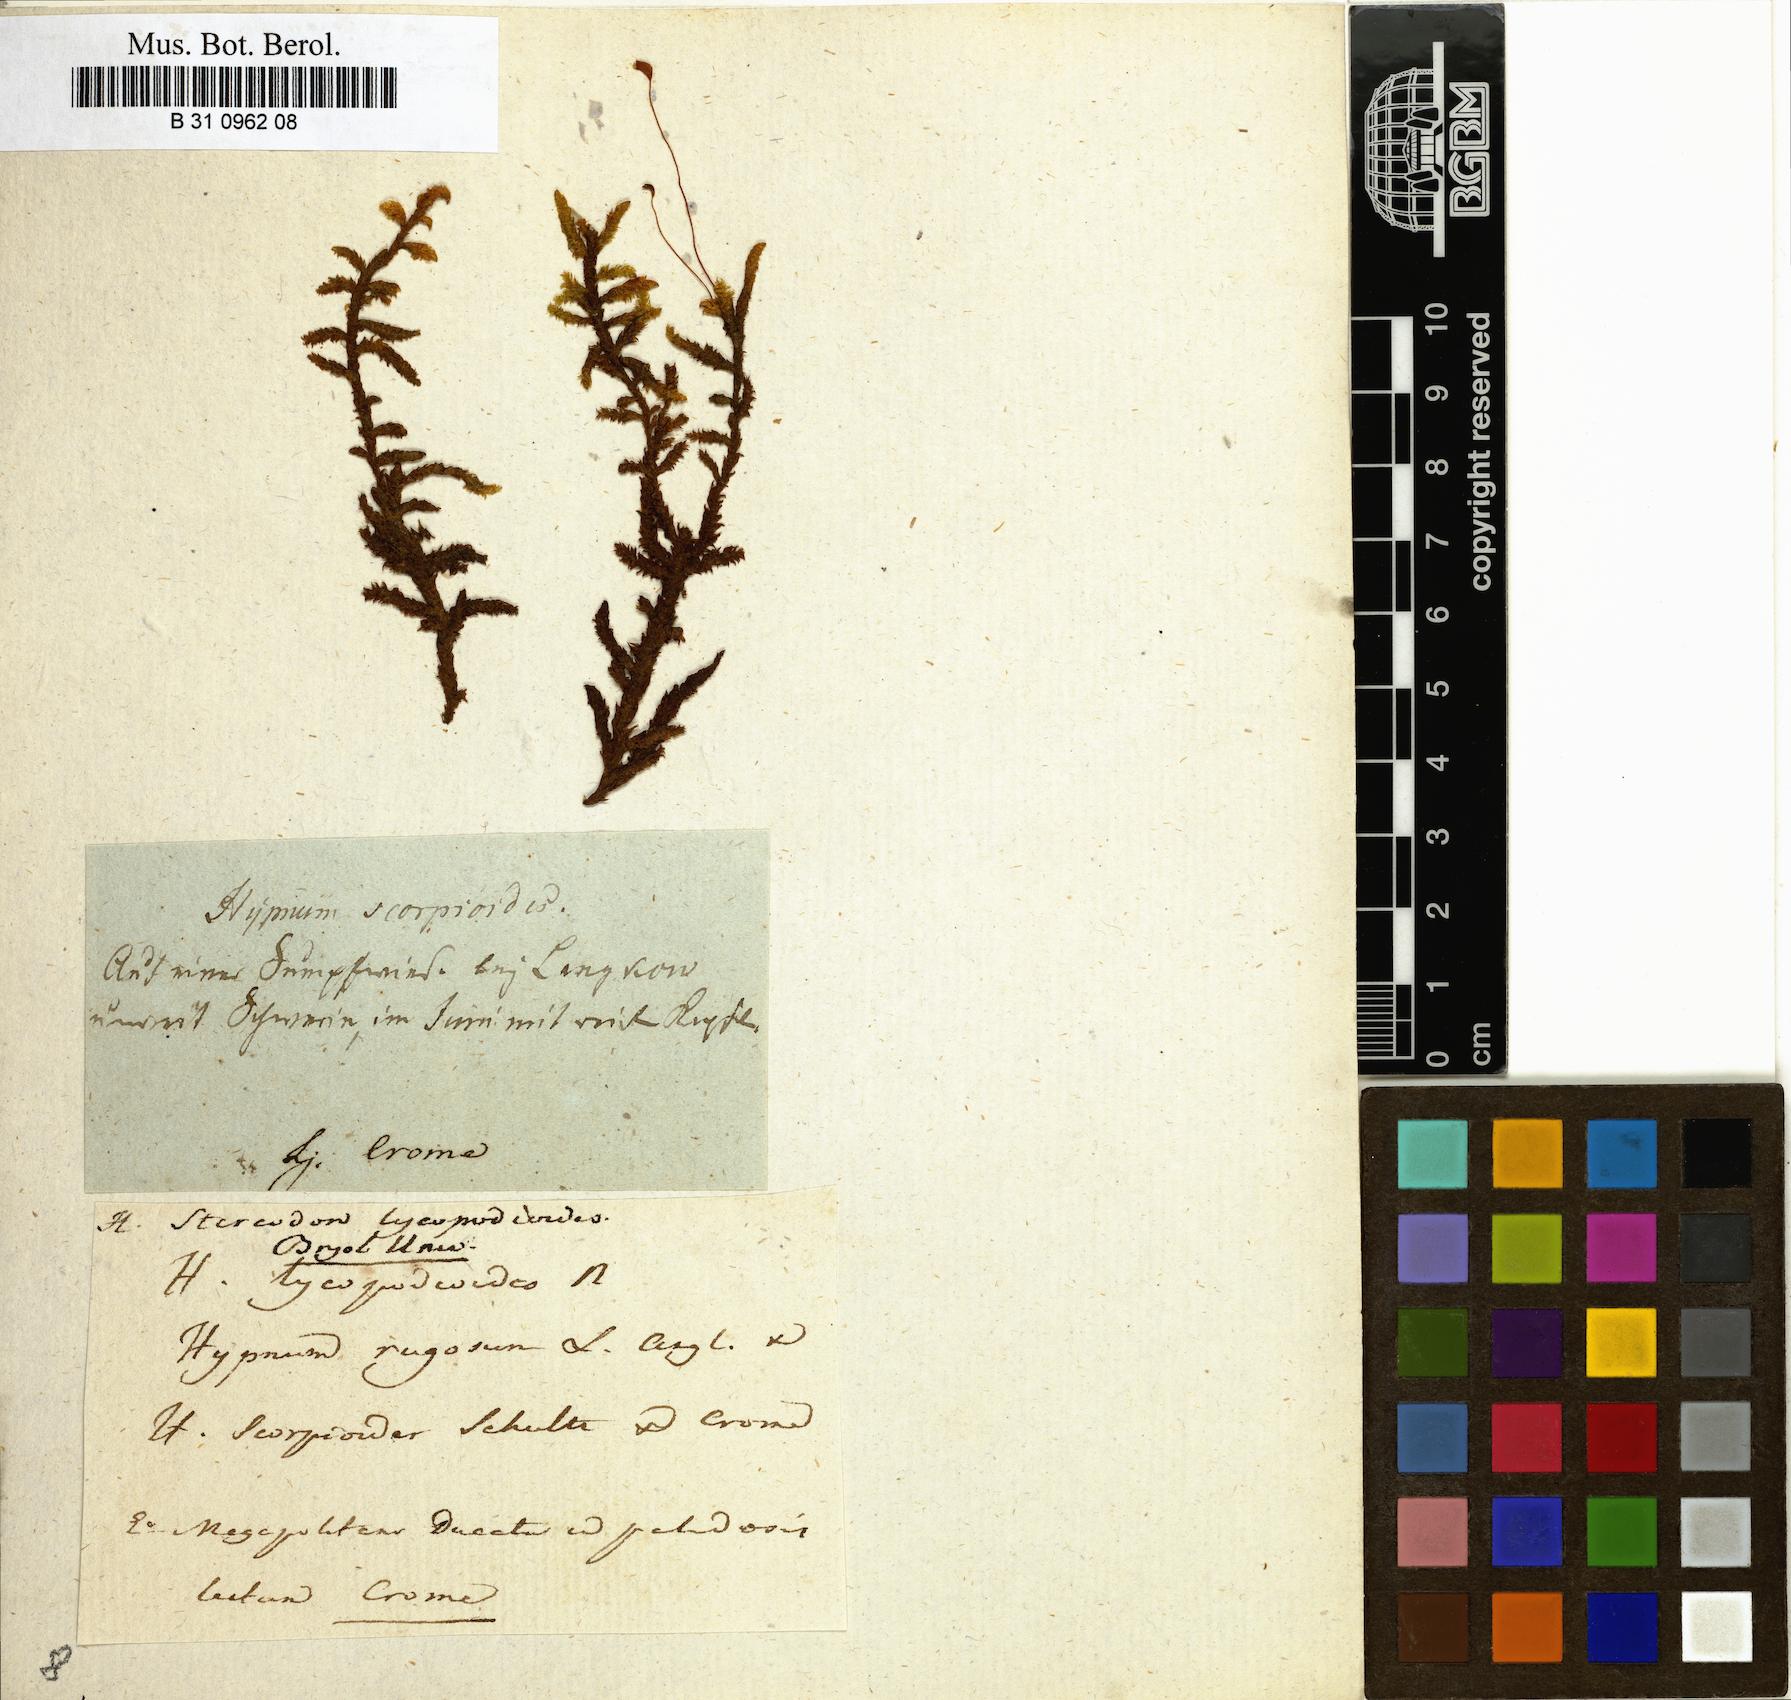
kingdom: Plantae
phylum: Bryophyta
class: Bryopsida
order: Hypnales
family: Scorpidiaceae
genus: Scorpidium
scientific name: Scorpidium scorpioides
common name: Hooked scorpion moss
